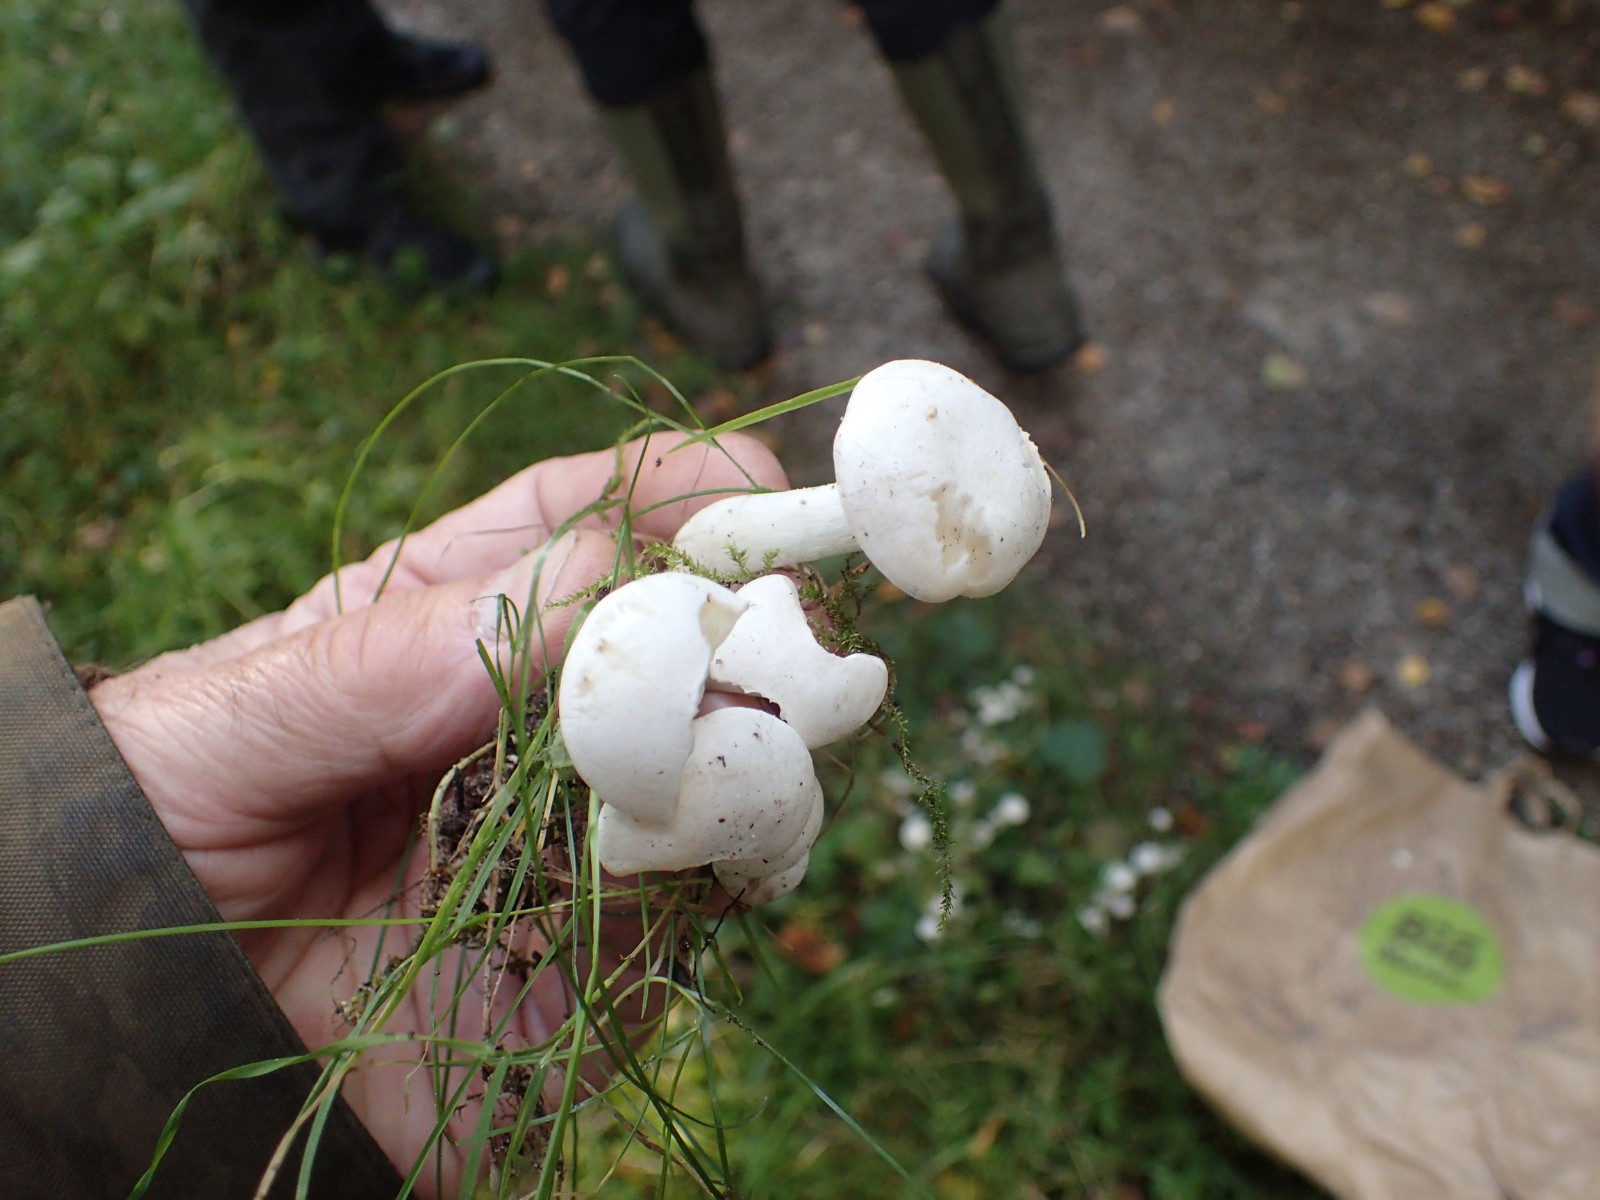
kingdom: Fungi
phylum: Basidiomycota
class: Agaricomycetes
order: Agaricales
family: Tricholomataceae
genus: Leucocybe
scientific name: Leucocybe connata
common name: knippe-tragthat
